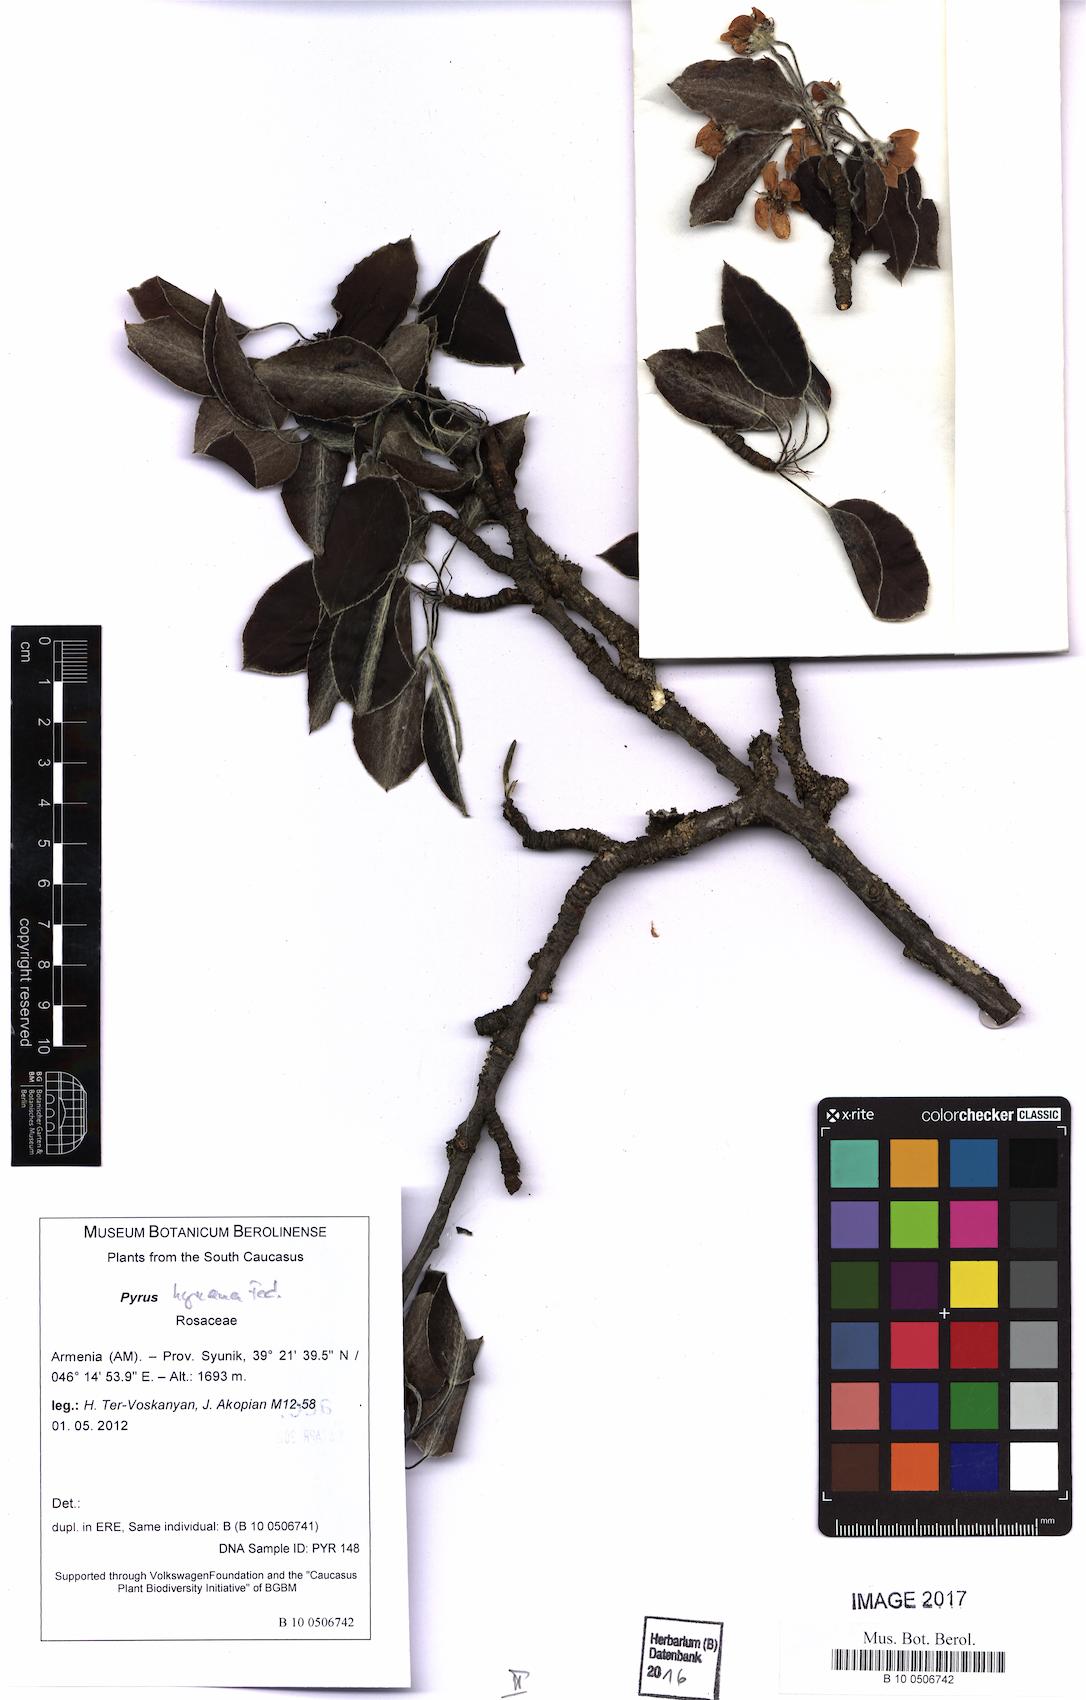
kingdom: Plantae
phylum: Tracheophyta
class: Magnoliopsida
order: Rosales
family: Rosaceae
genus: Pyrus
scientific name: Pyrus hyrcana
